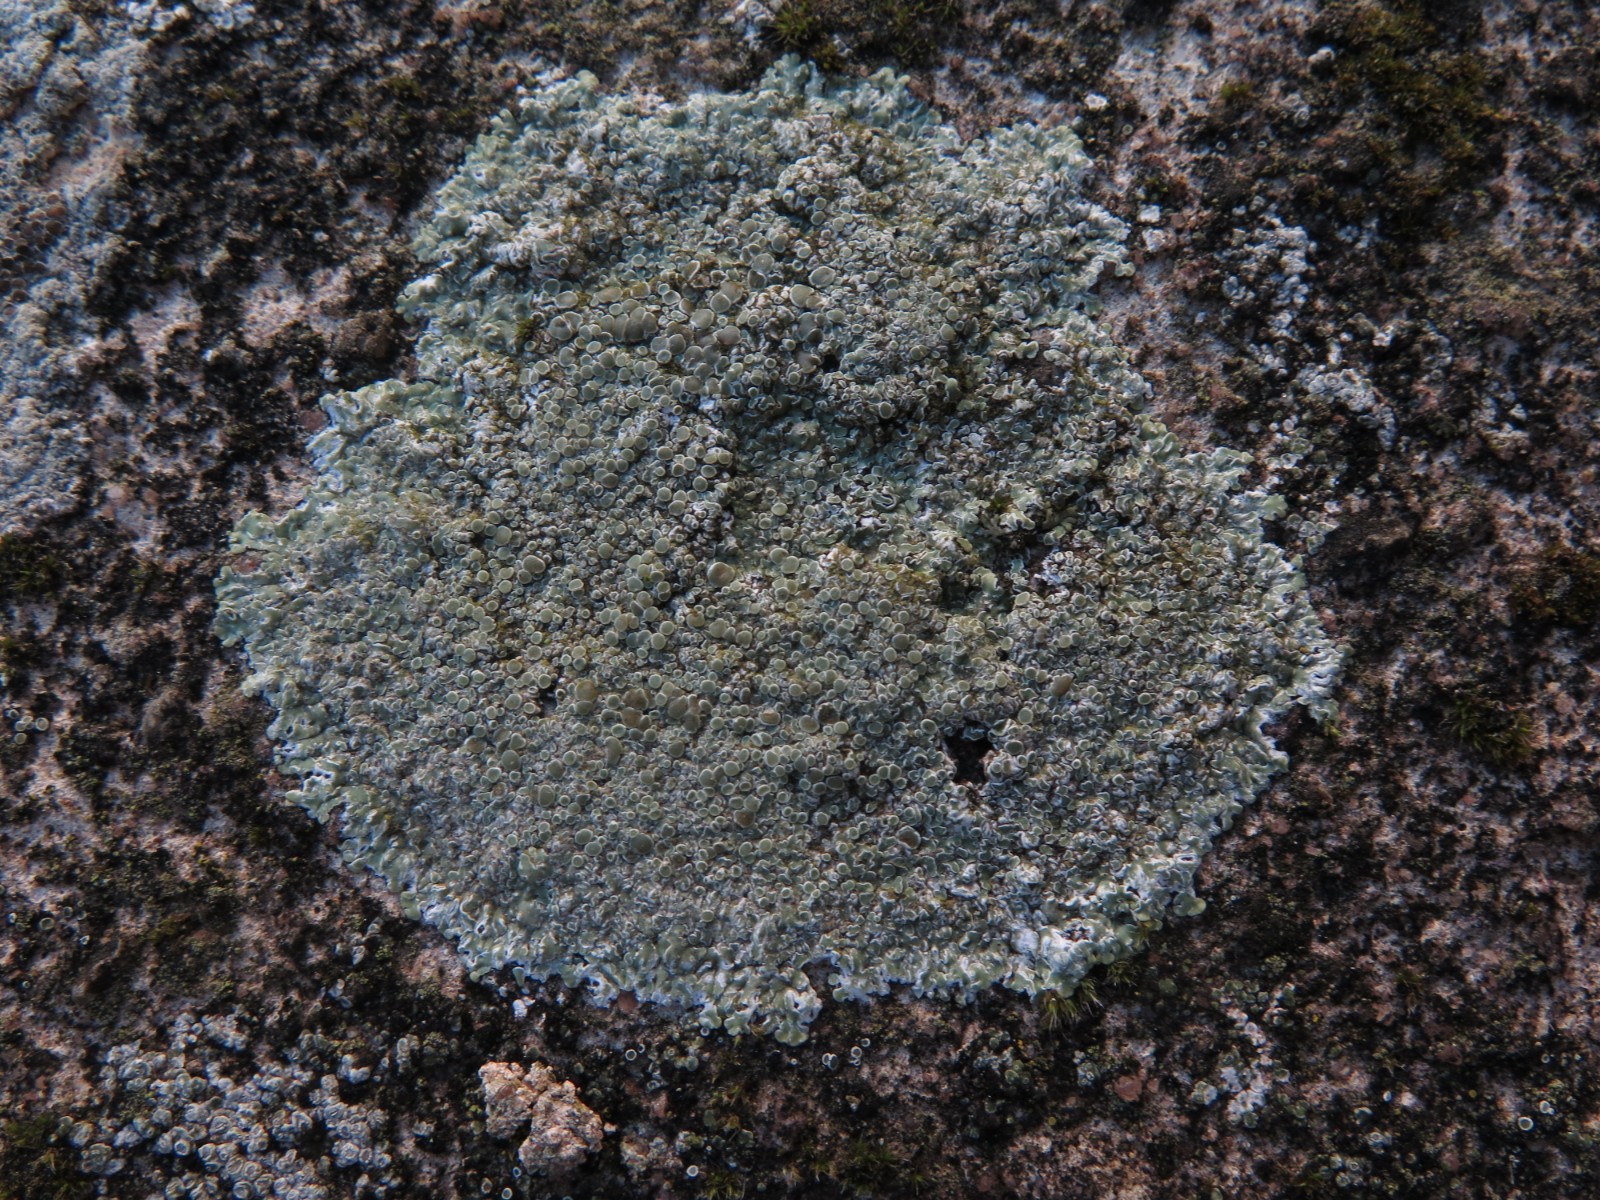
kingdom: Fungi
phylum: Ascomycota
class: Lecanoromycetes
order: Lecanorales
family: Lecanoraceae
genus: Protoparmeliopsis
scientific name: Protoparmeliopsis muralis
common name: randfliget kantskivelav
